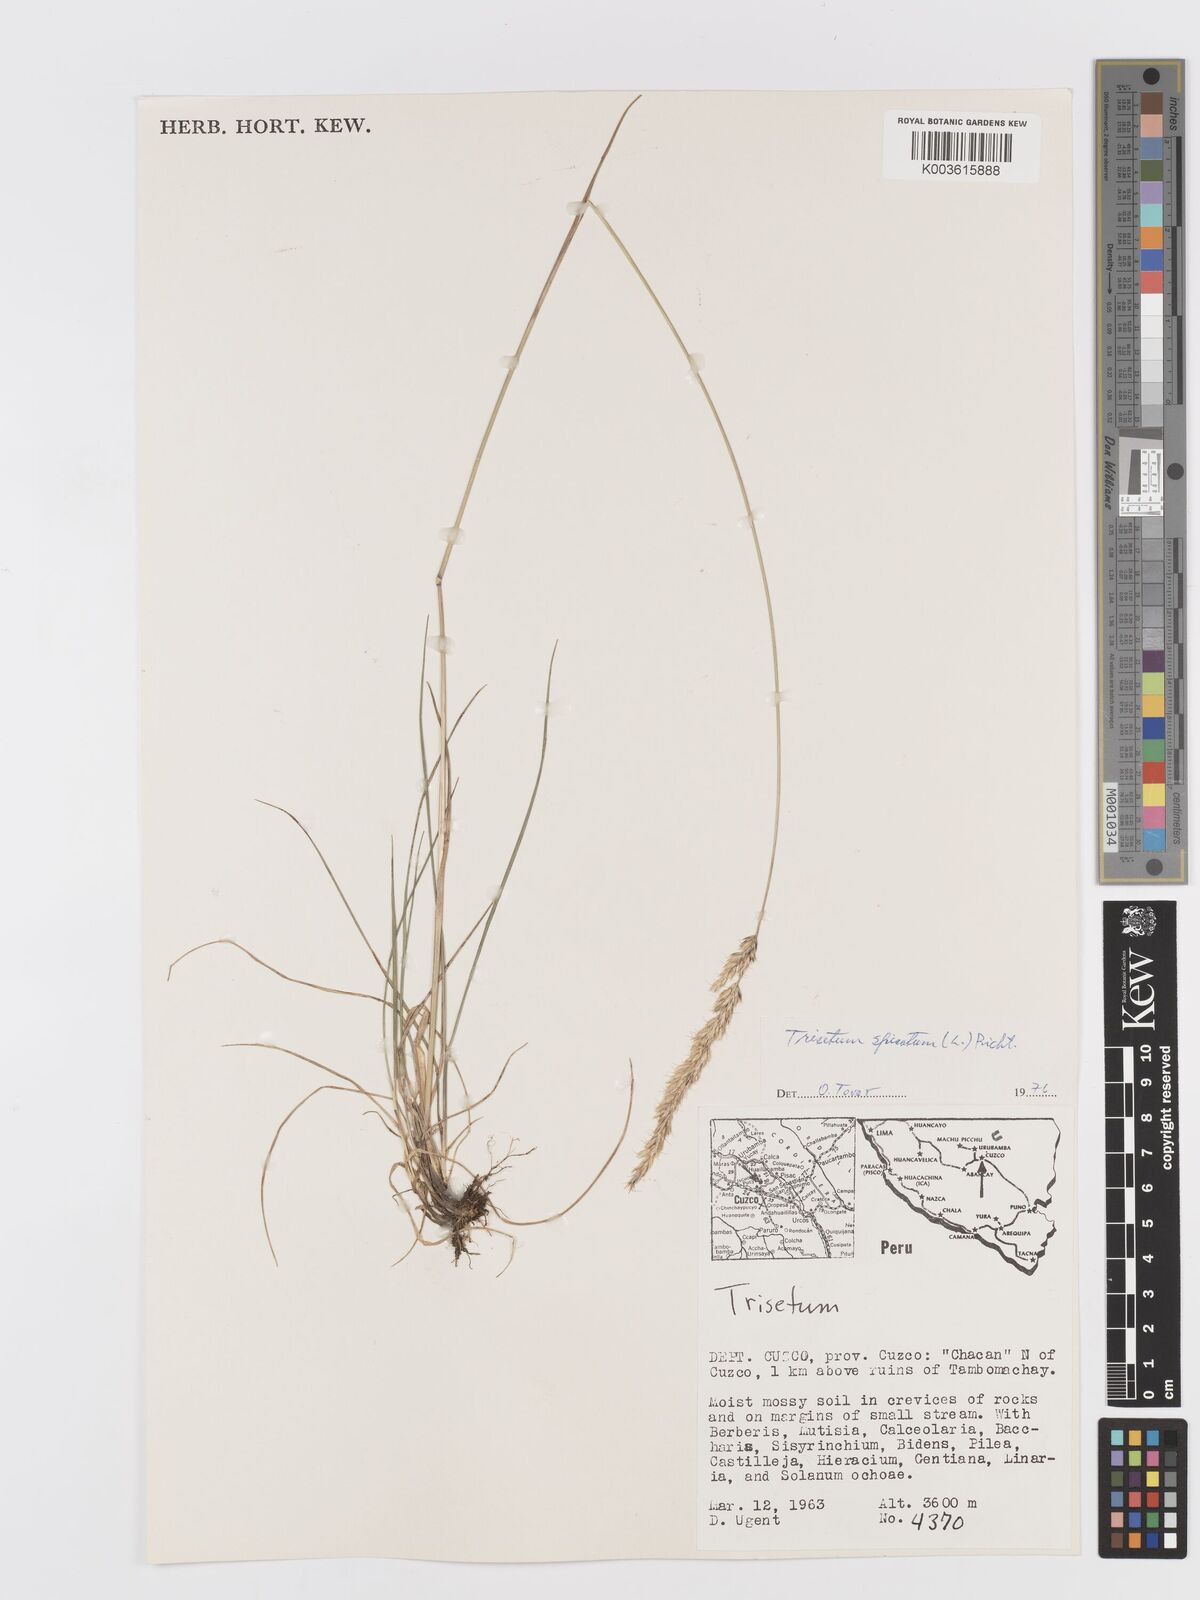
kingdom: Plantae
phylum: Tracheophyta
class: Liliopsida
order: Poales
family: Poaceae
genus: Koeleria
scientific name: Koeleria spicata
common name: Mountain trisetum
